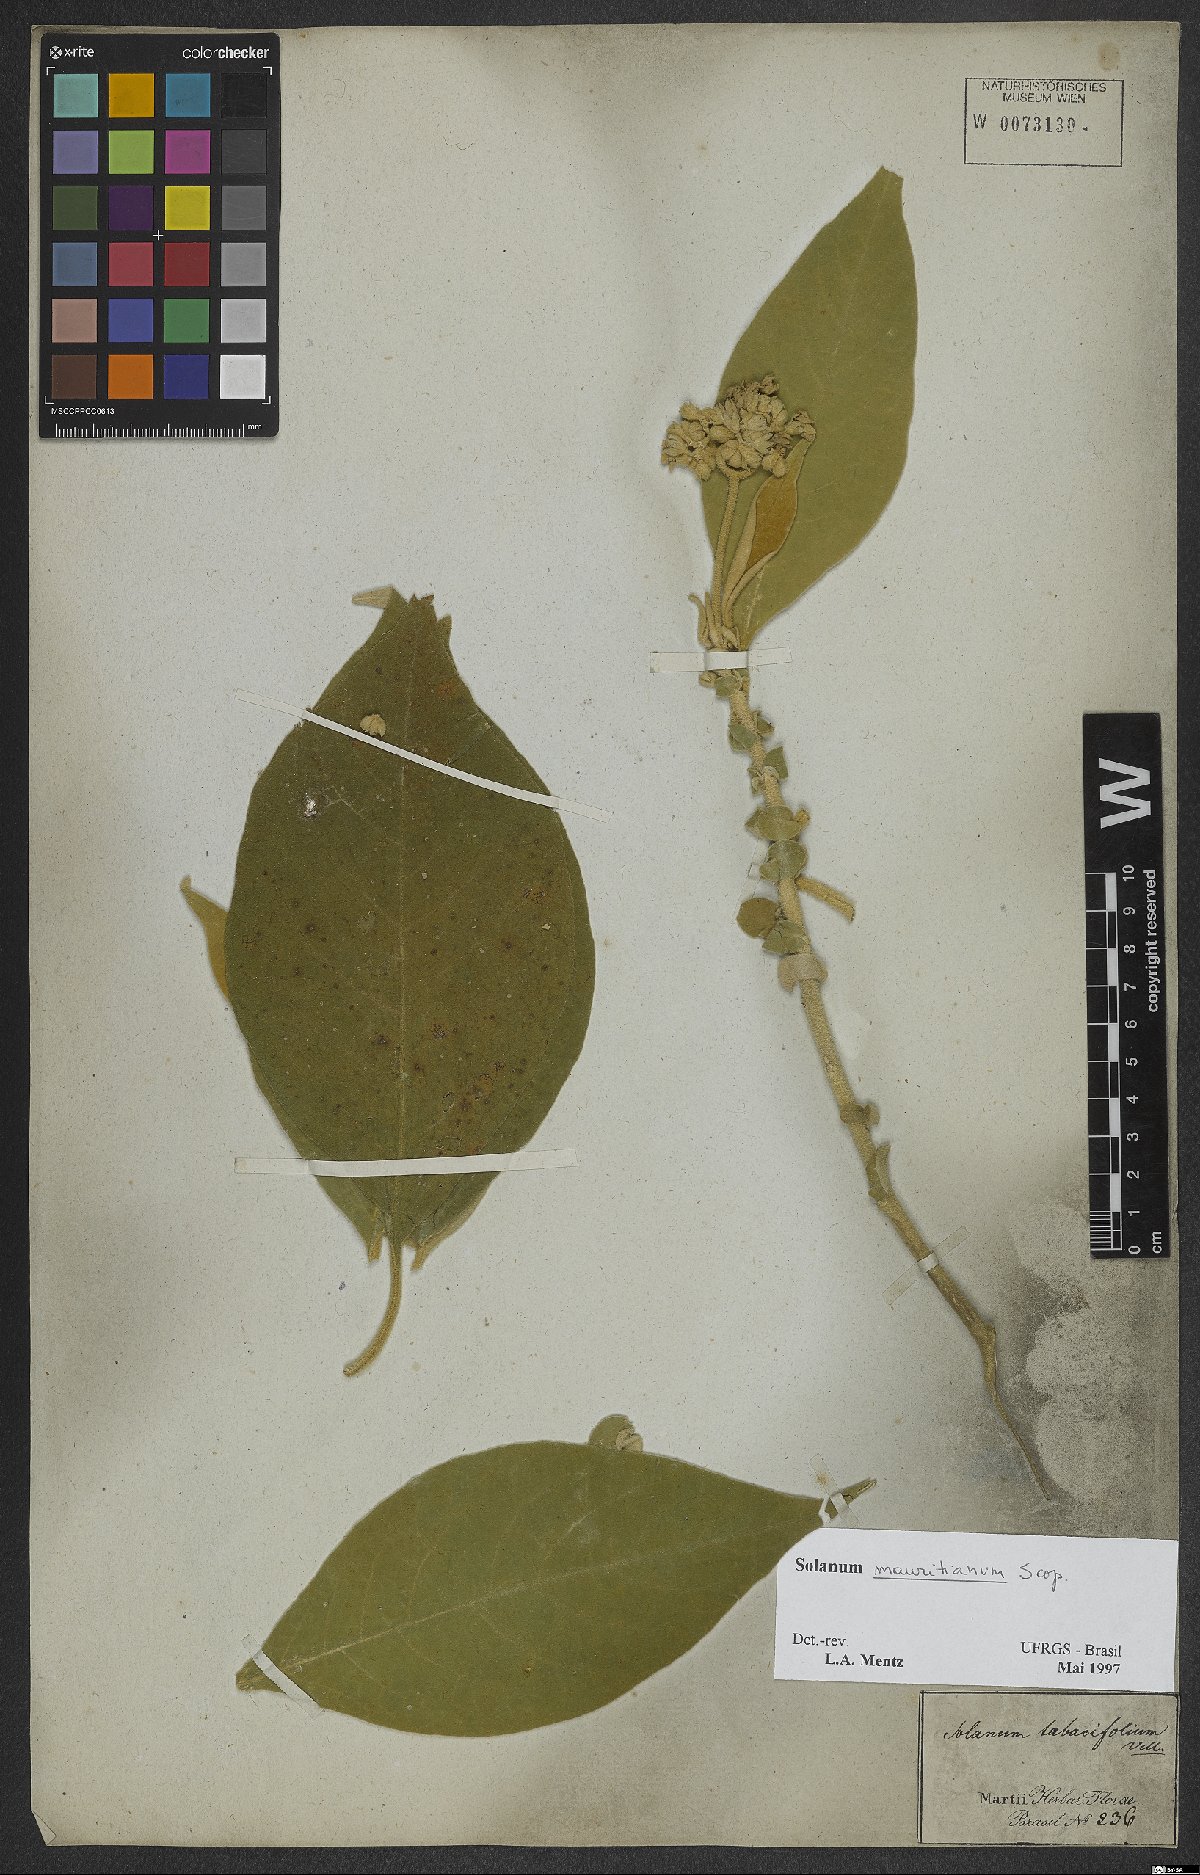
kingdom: Plantae
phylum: Tracheophyta
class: Magnoliopsida
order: Solanales
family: Solanaceae
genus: Solanum
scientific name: Solanum mauritianum
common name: Earleaf nightshade
